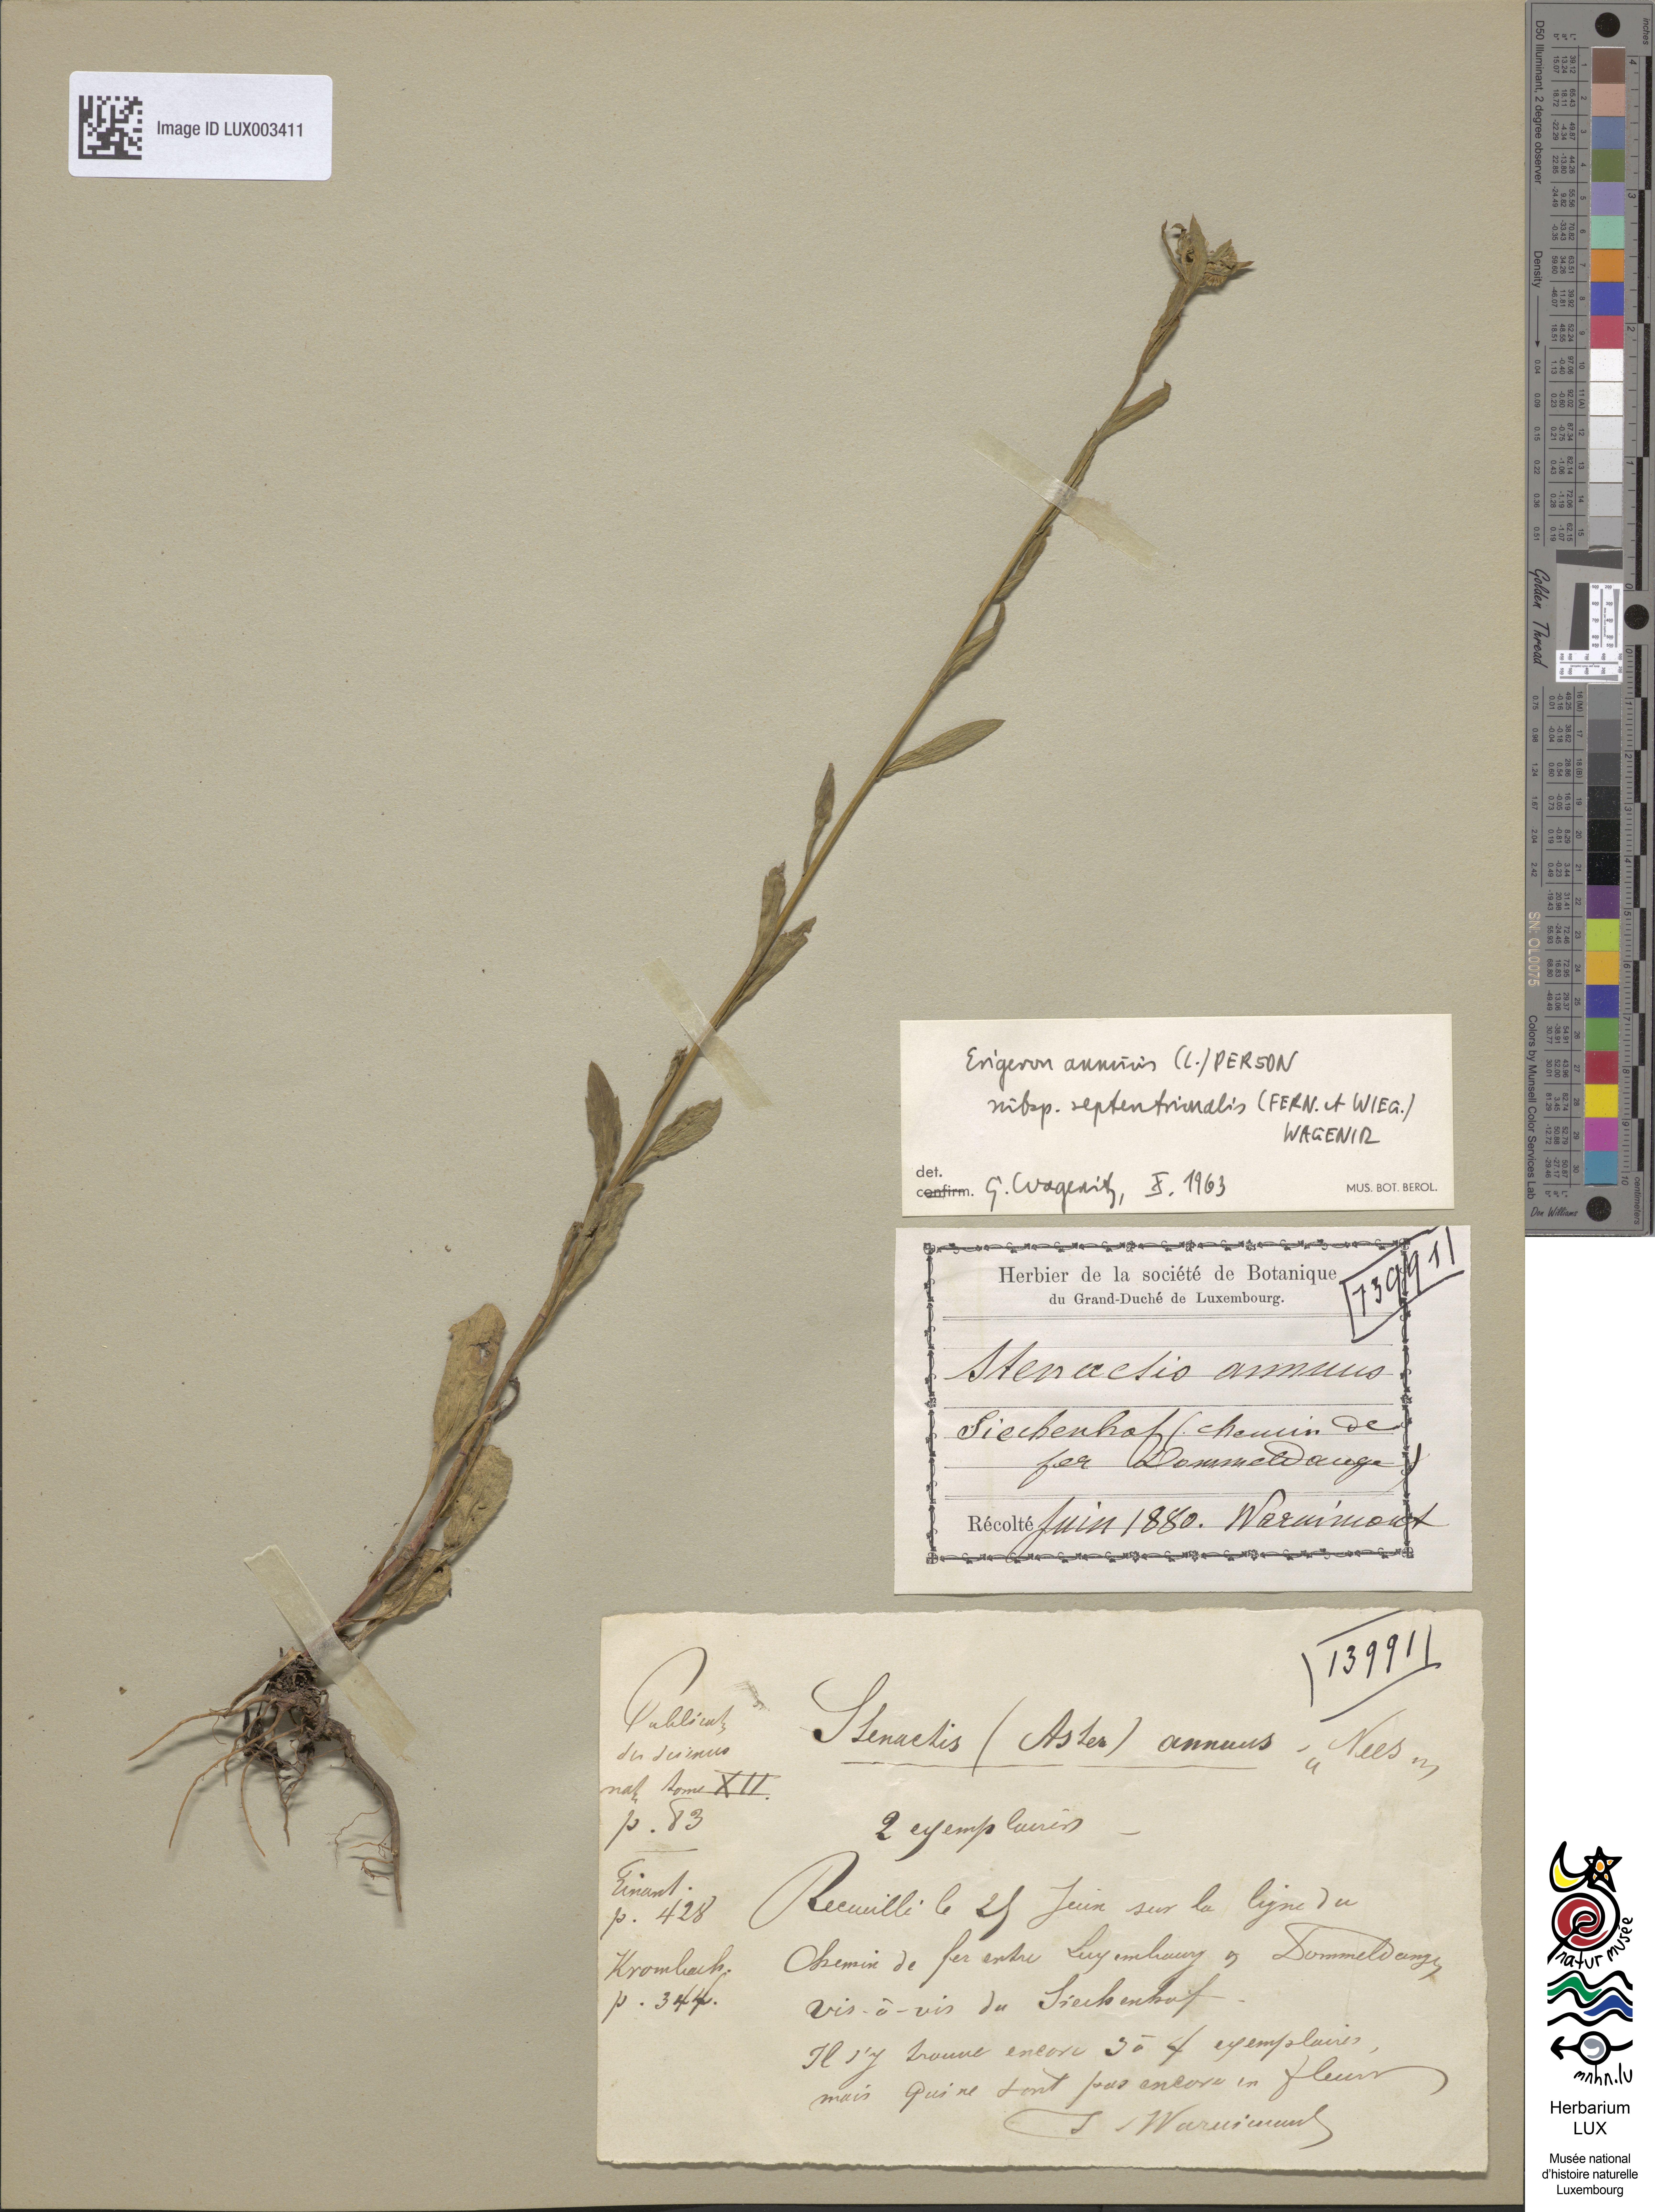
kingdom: Plantae
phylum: Tracheophyta
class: Magnoliopsida
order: Asterales
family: Asteraceae
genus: Erigeron
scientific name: Erigeron annuus
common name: Tall fleabane
